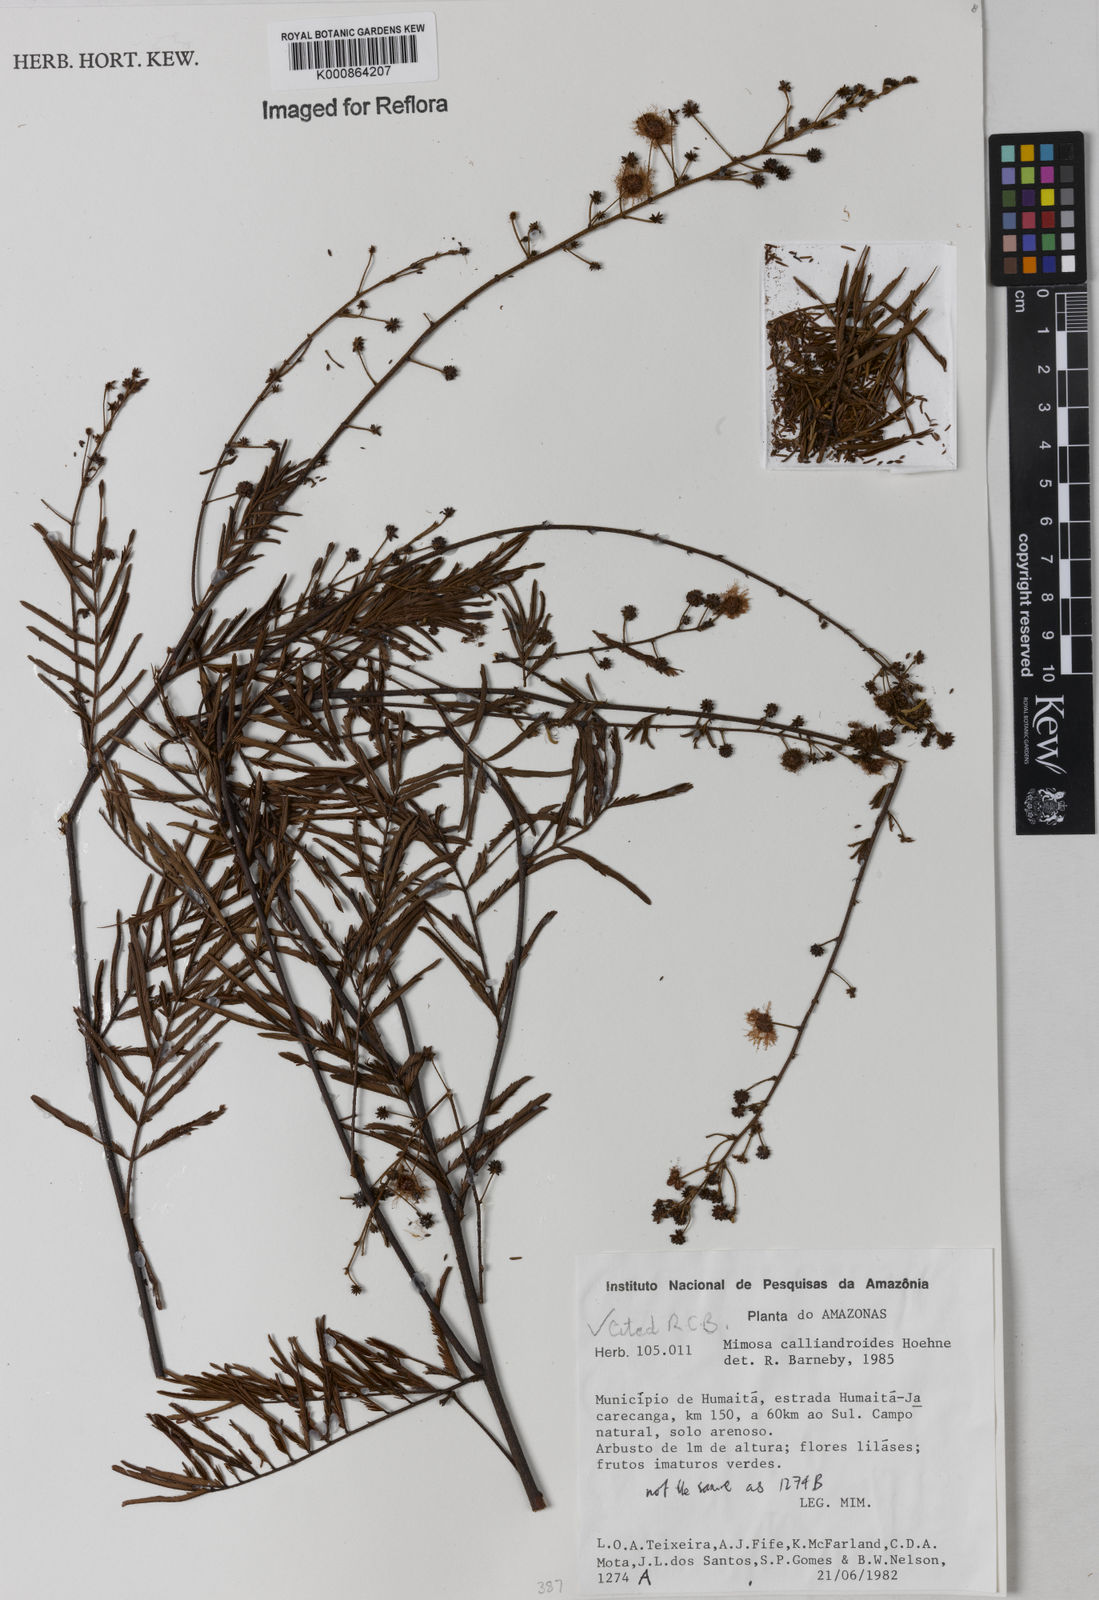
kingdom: Plantae
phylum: Tracheophyta
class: Magnoliopsida
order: Fabales
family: Fabaceae
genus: Mimosa
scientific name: Mimosa calliandroides
